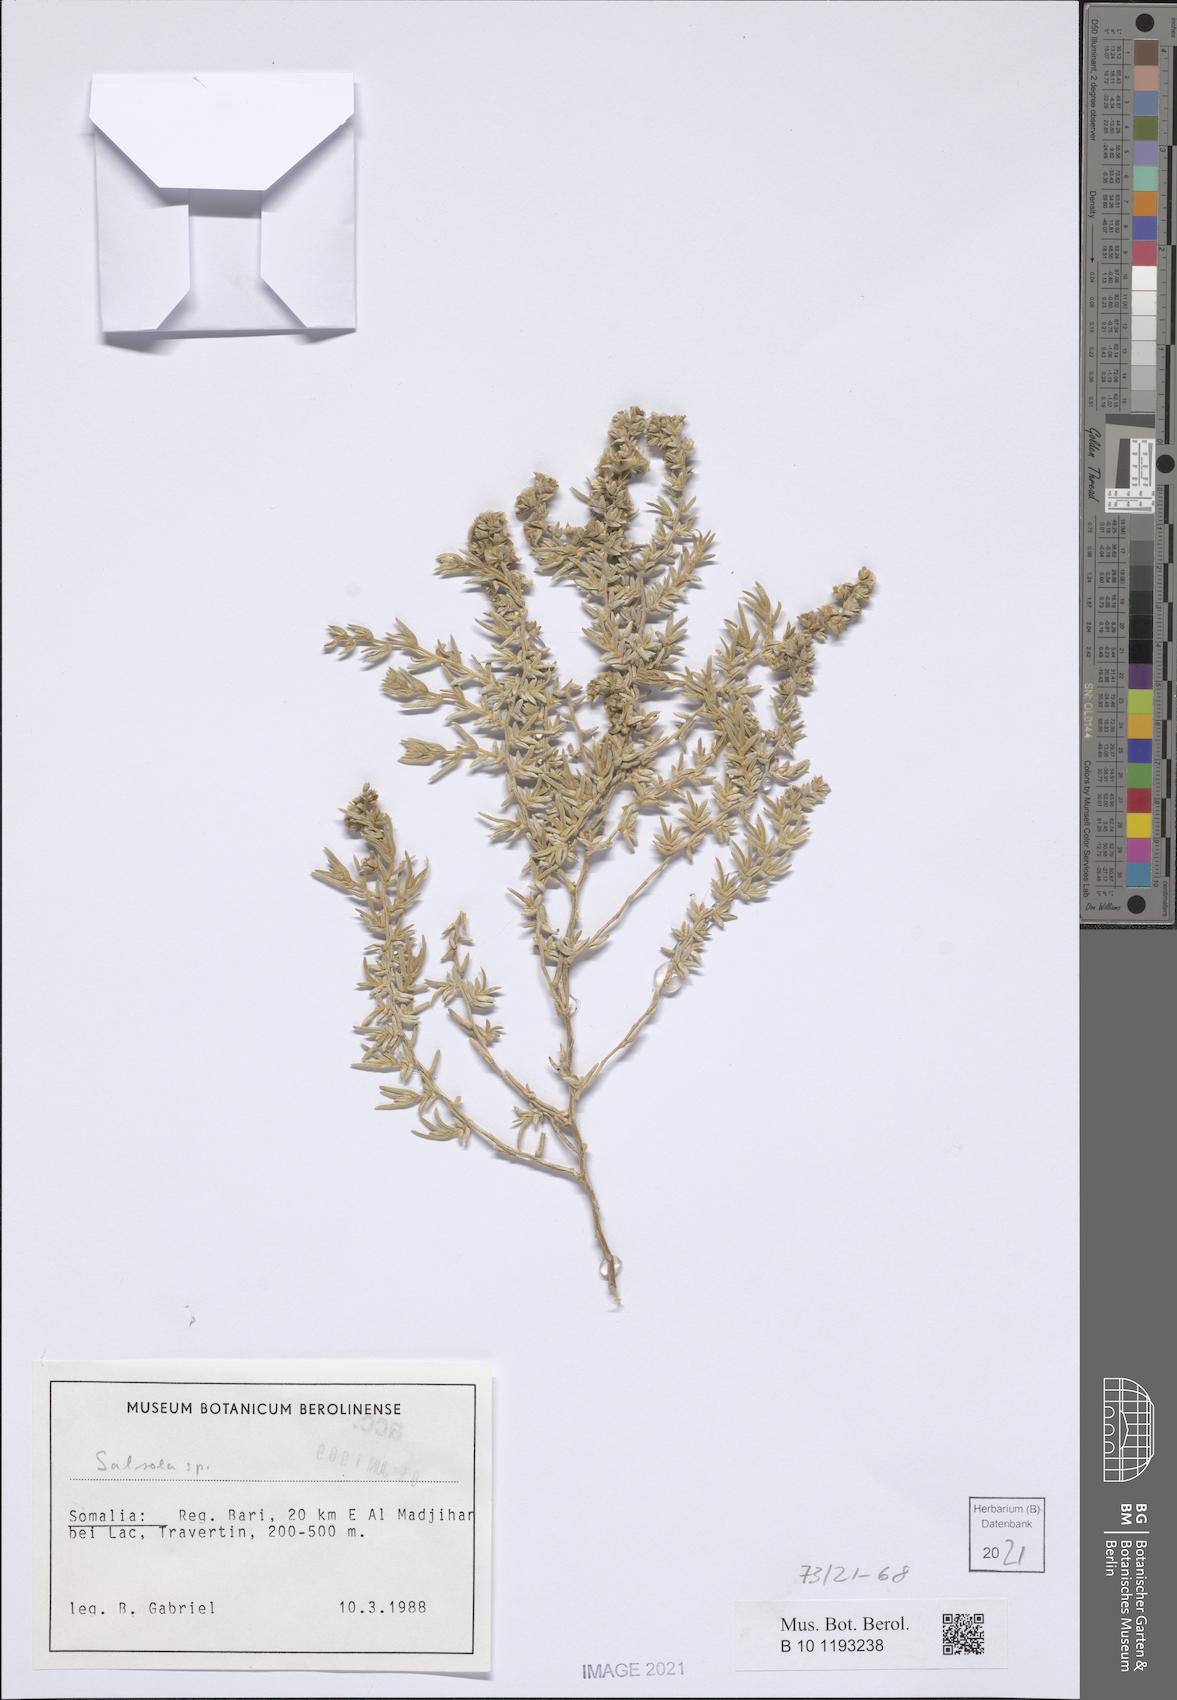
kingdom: Plantae
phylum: Tracheophyta
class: Magnoliopsida
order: Caryophyllales
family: Amaranthaceae
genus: Salsola
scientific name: Salsola
